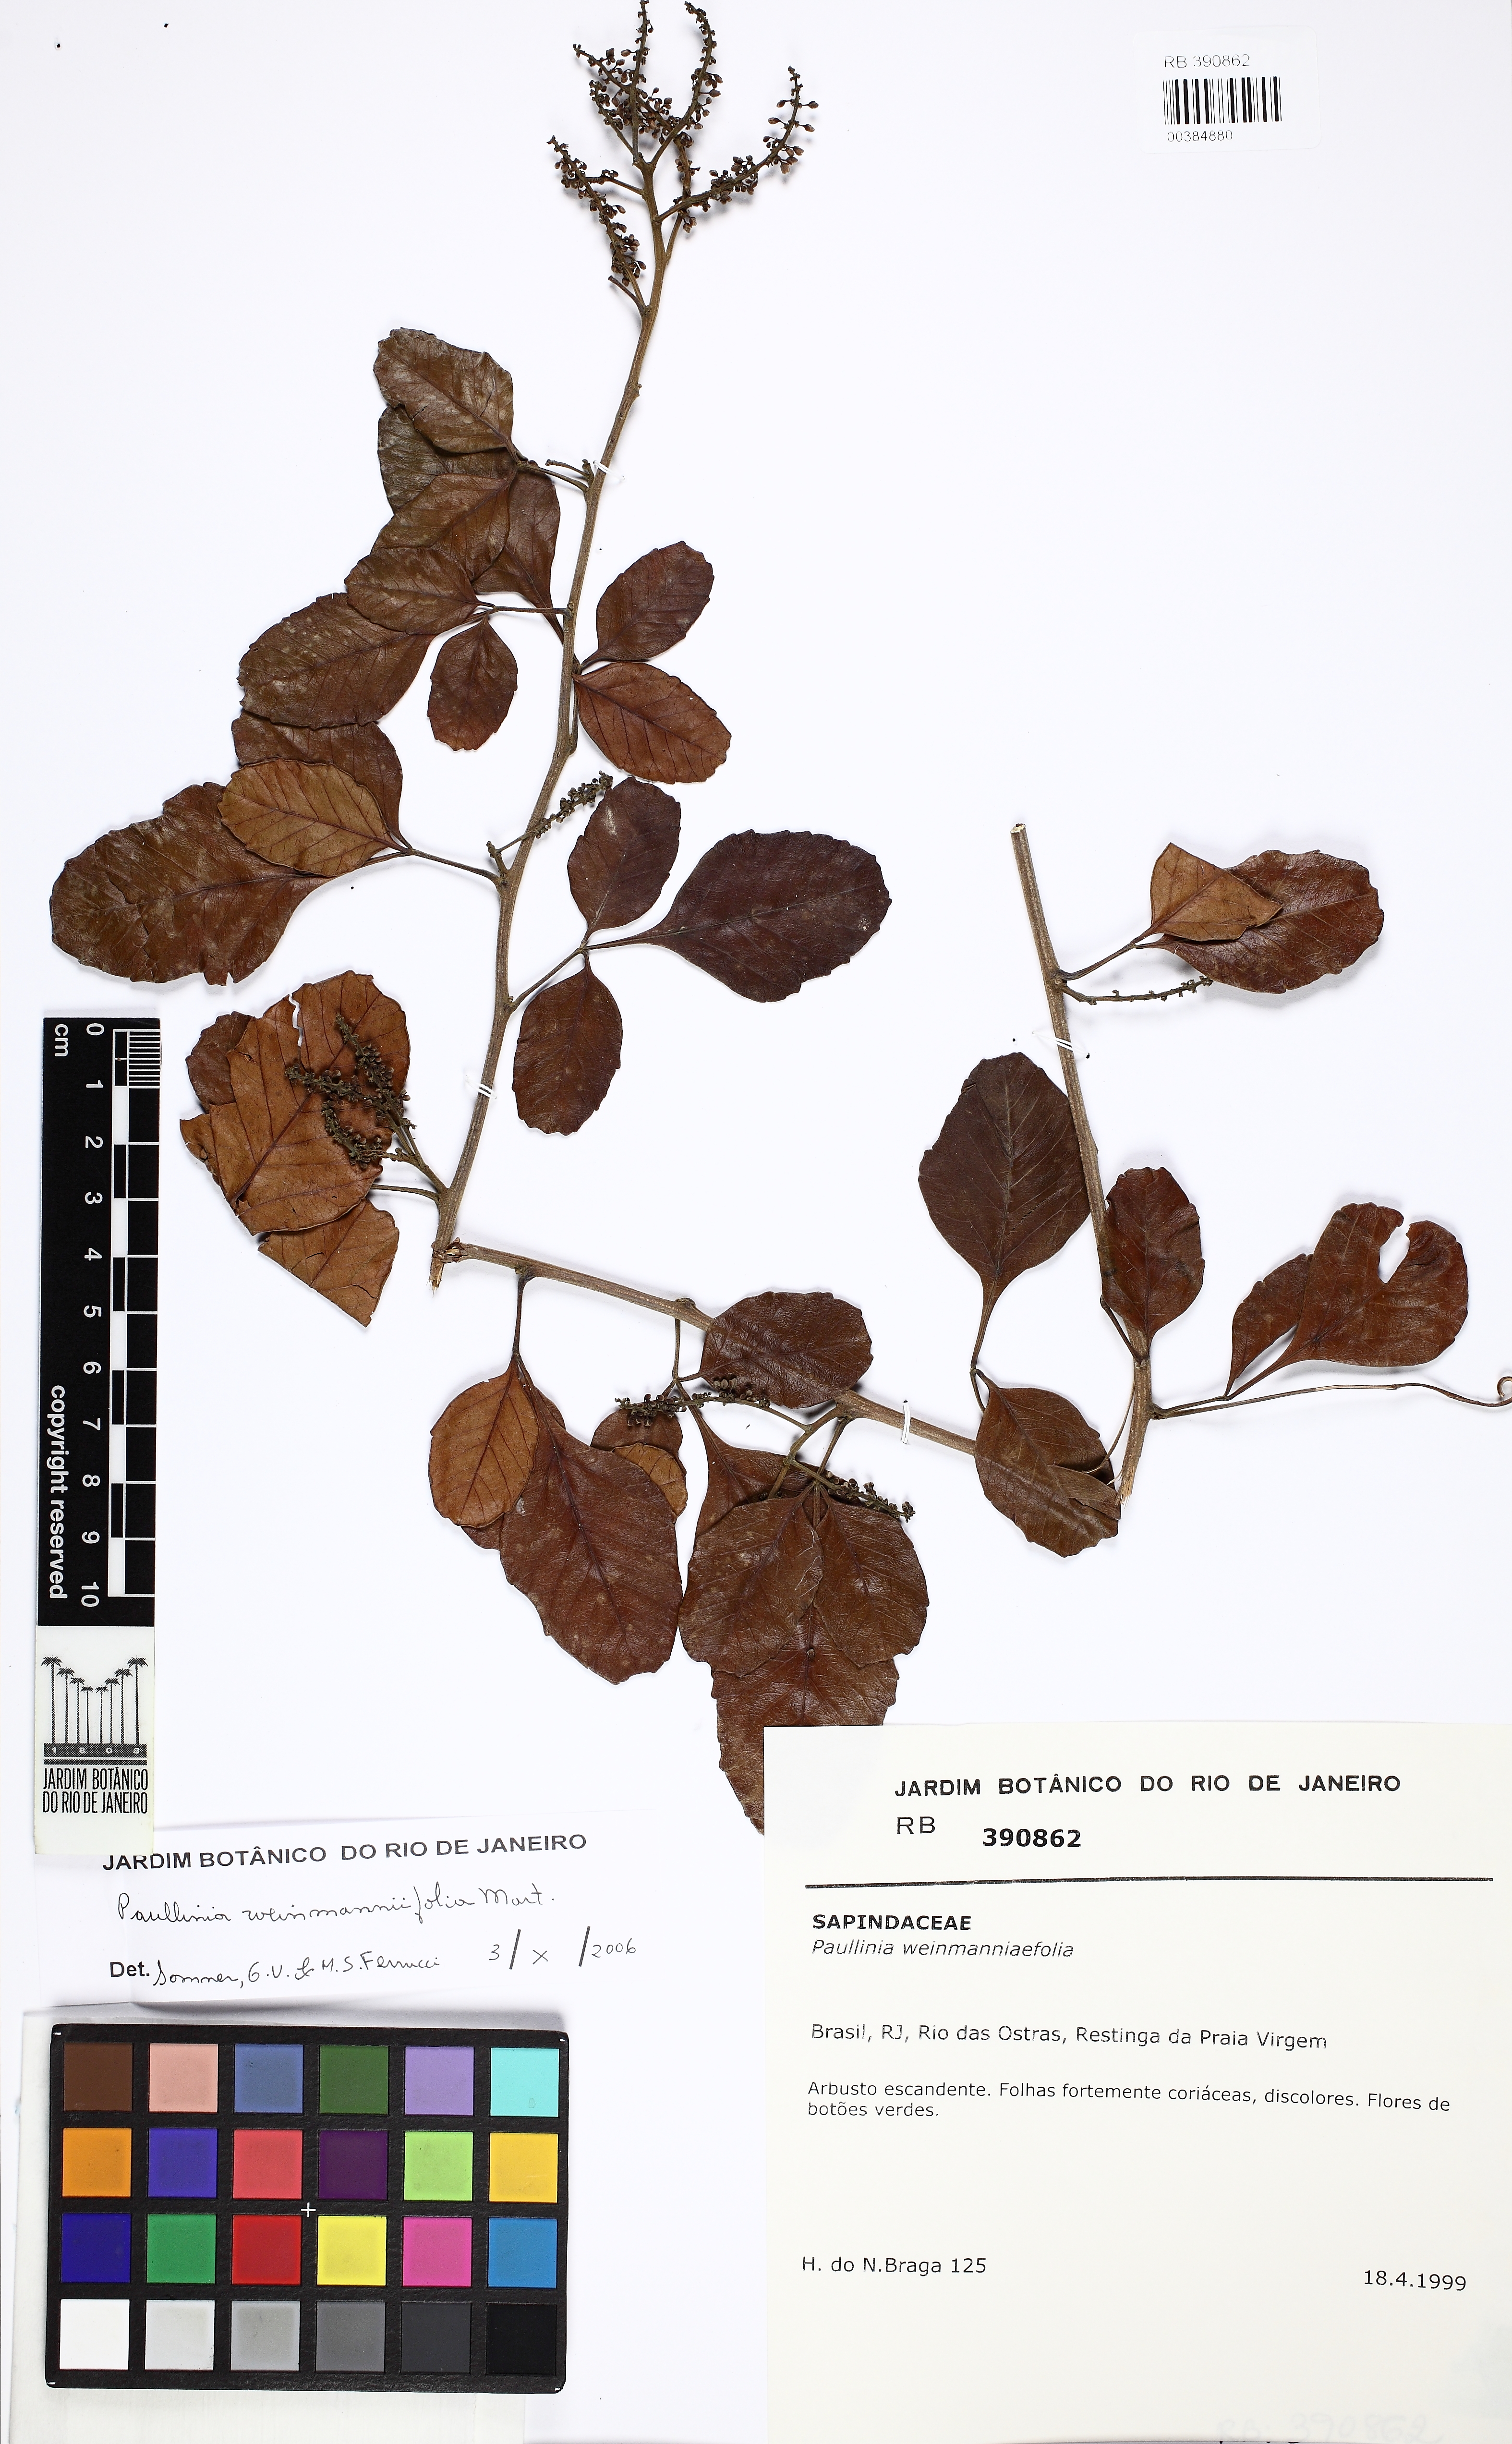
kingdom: Plantae
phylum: Tracheophyta
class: Magnoliopsida
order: Sapindales
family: Sapindaceae
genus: Paullinia
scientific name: Paullinia weinmanniifolia
